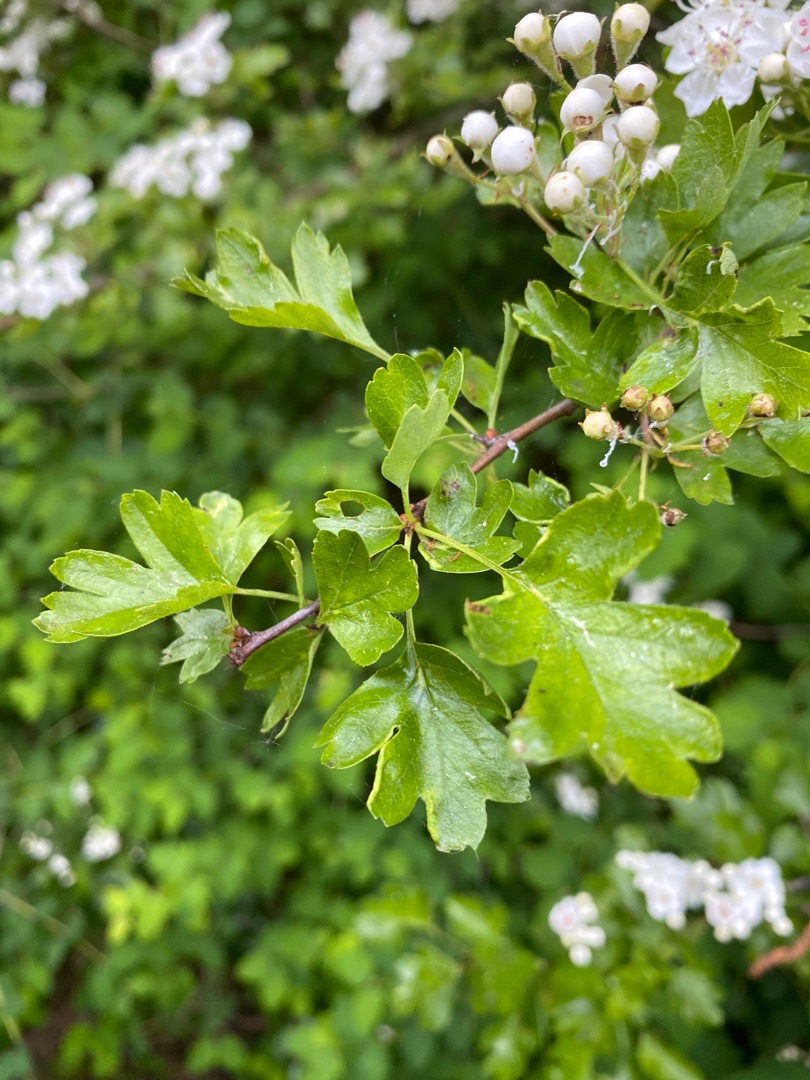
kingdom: Plantae
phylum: Tracheophyta
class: Magnoliopsida
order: Rosales
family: Rosaceae
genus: Crataegus
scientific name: Crataegus monogyna
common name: Engriflet hvidtjørn
